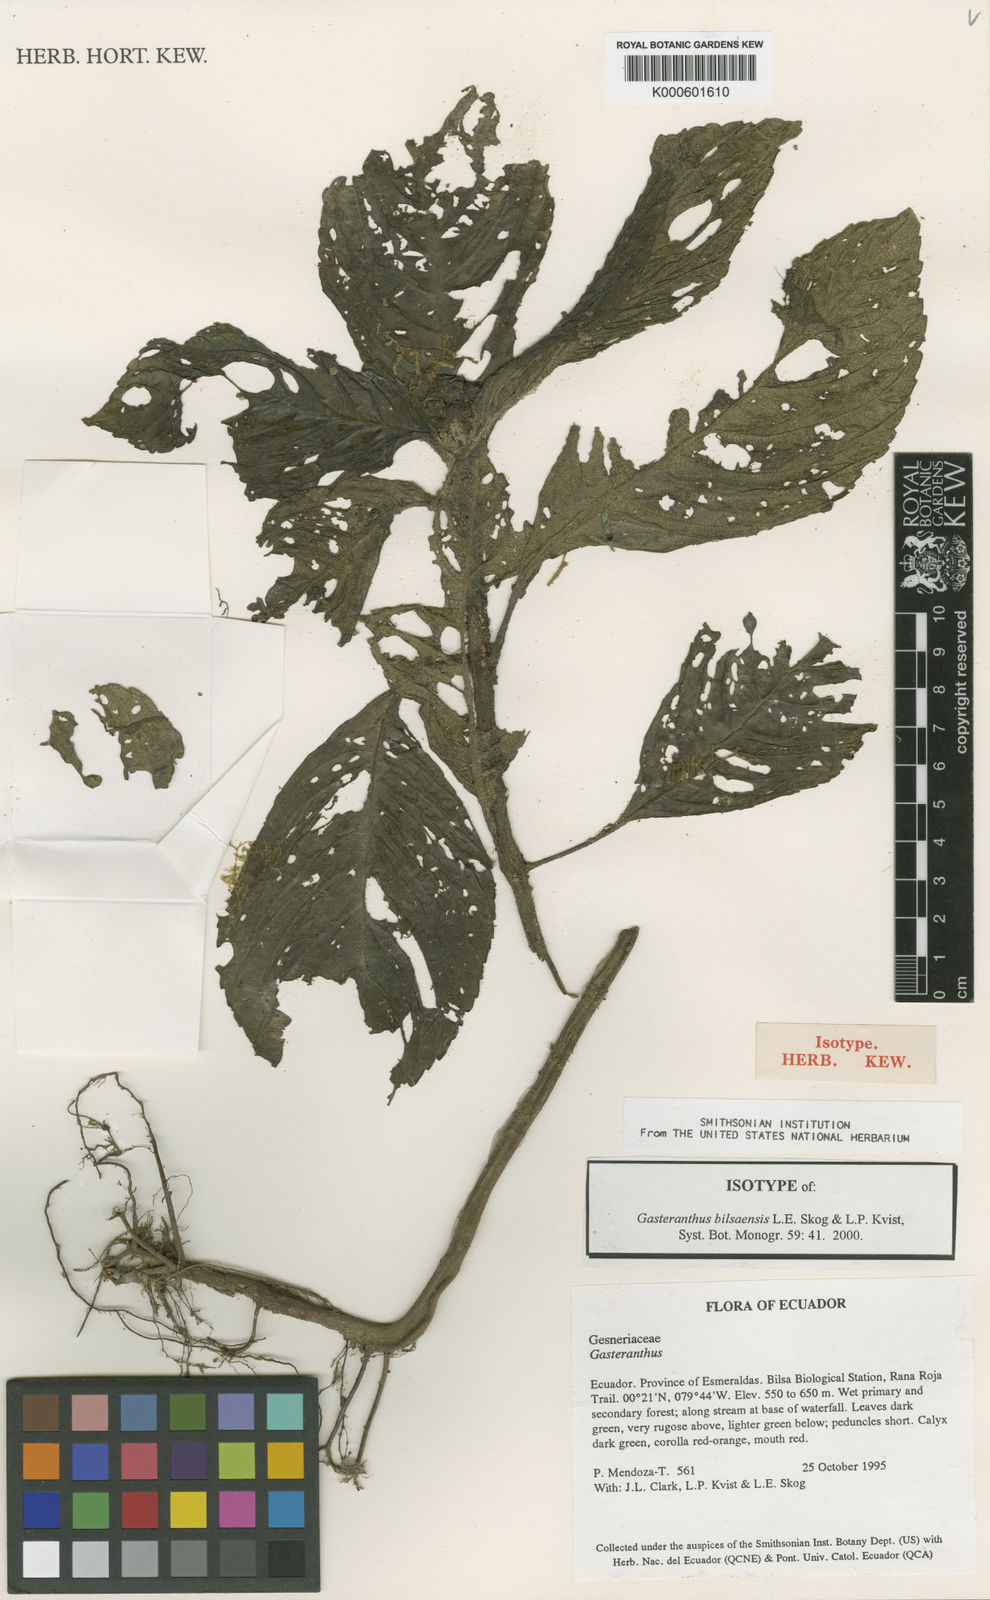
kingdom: Plantae
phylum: Tracheophyta
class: Magnoliopsida
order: Lamiales
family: Gesneriaceae
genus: Gasteranthus
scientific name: Gasteranthus bilsaensis
